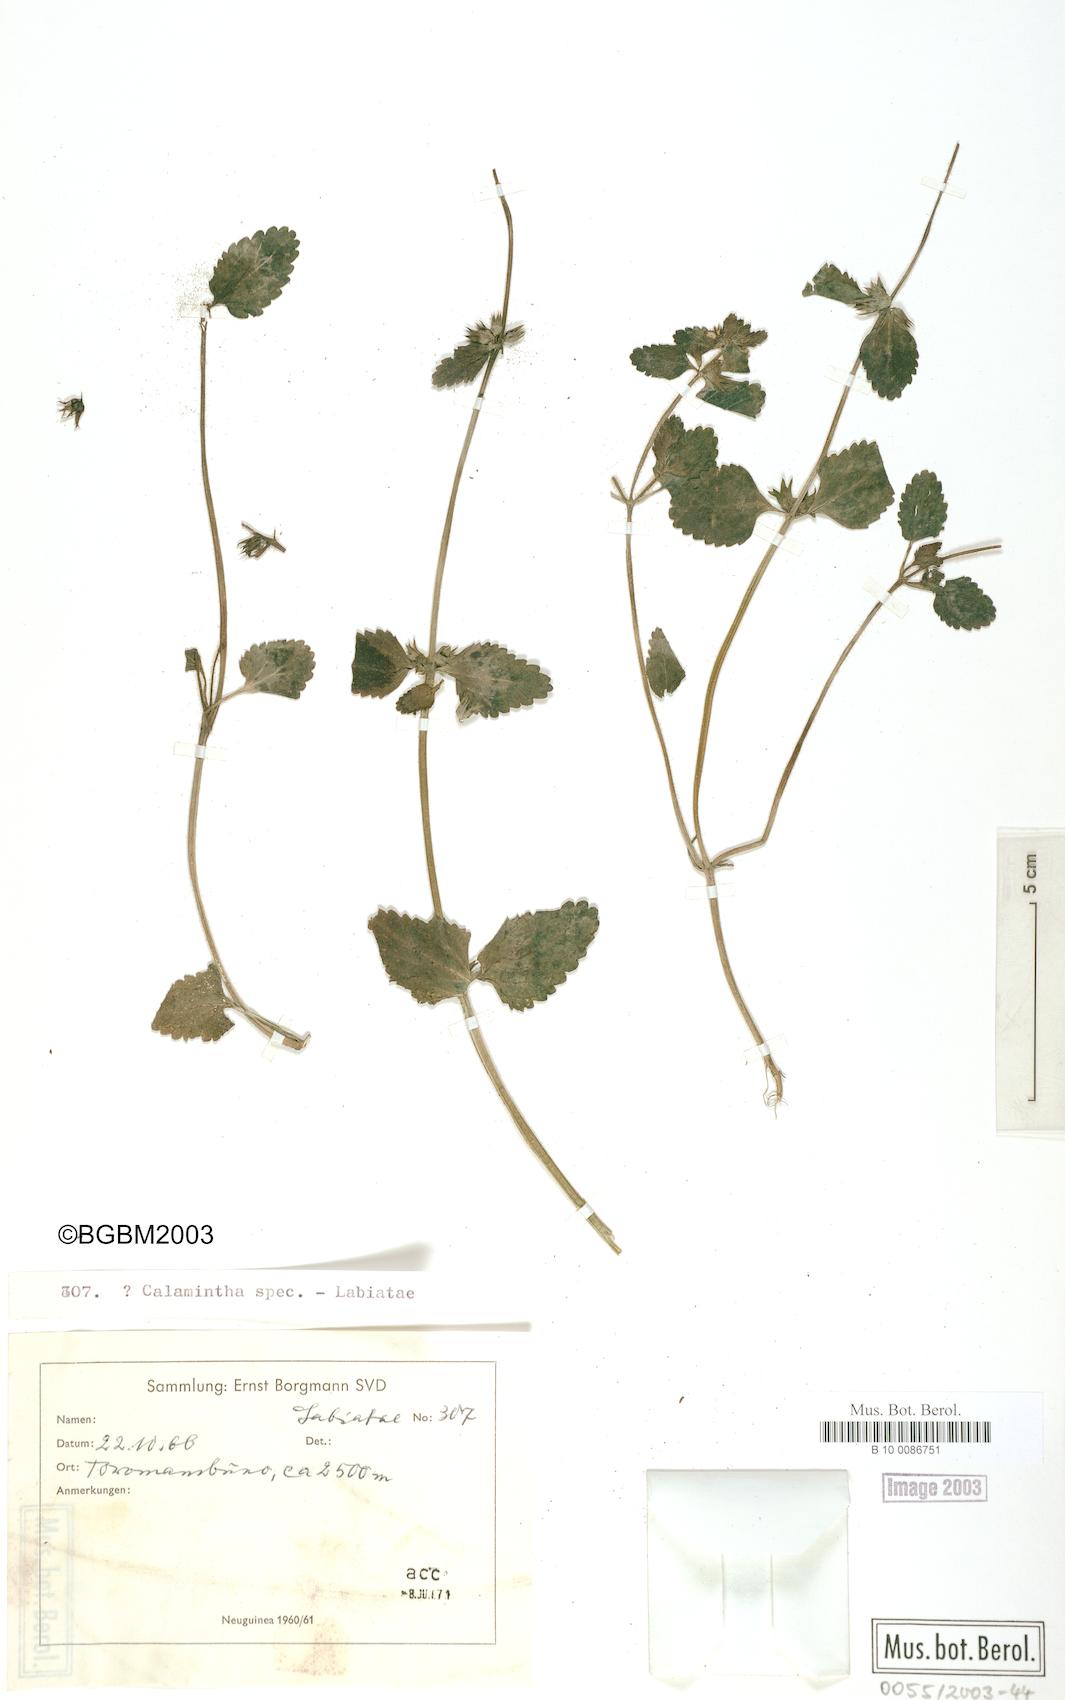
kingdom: Plantae
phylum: Tracheophyta
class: Magnoliopsida
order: Lamiales
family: Lamiaceae
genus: Calamintha
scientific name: Calamintha
